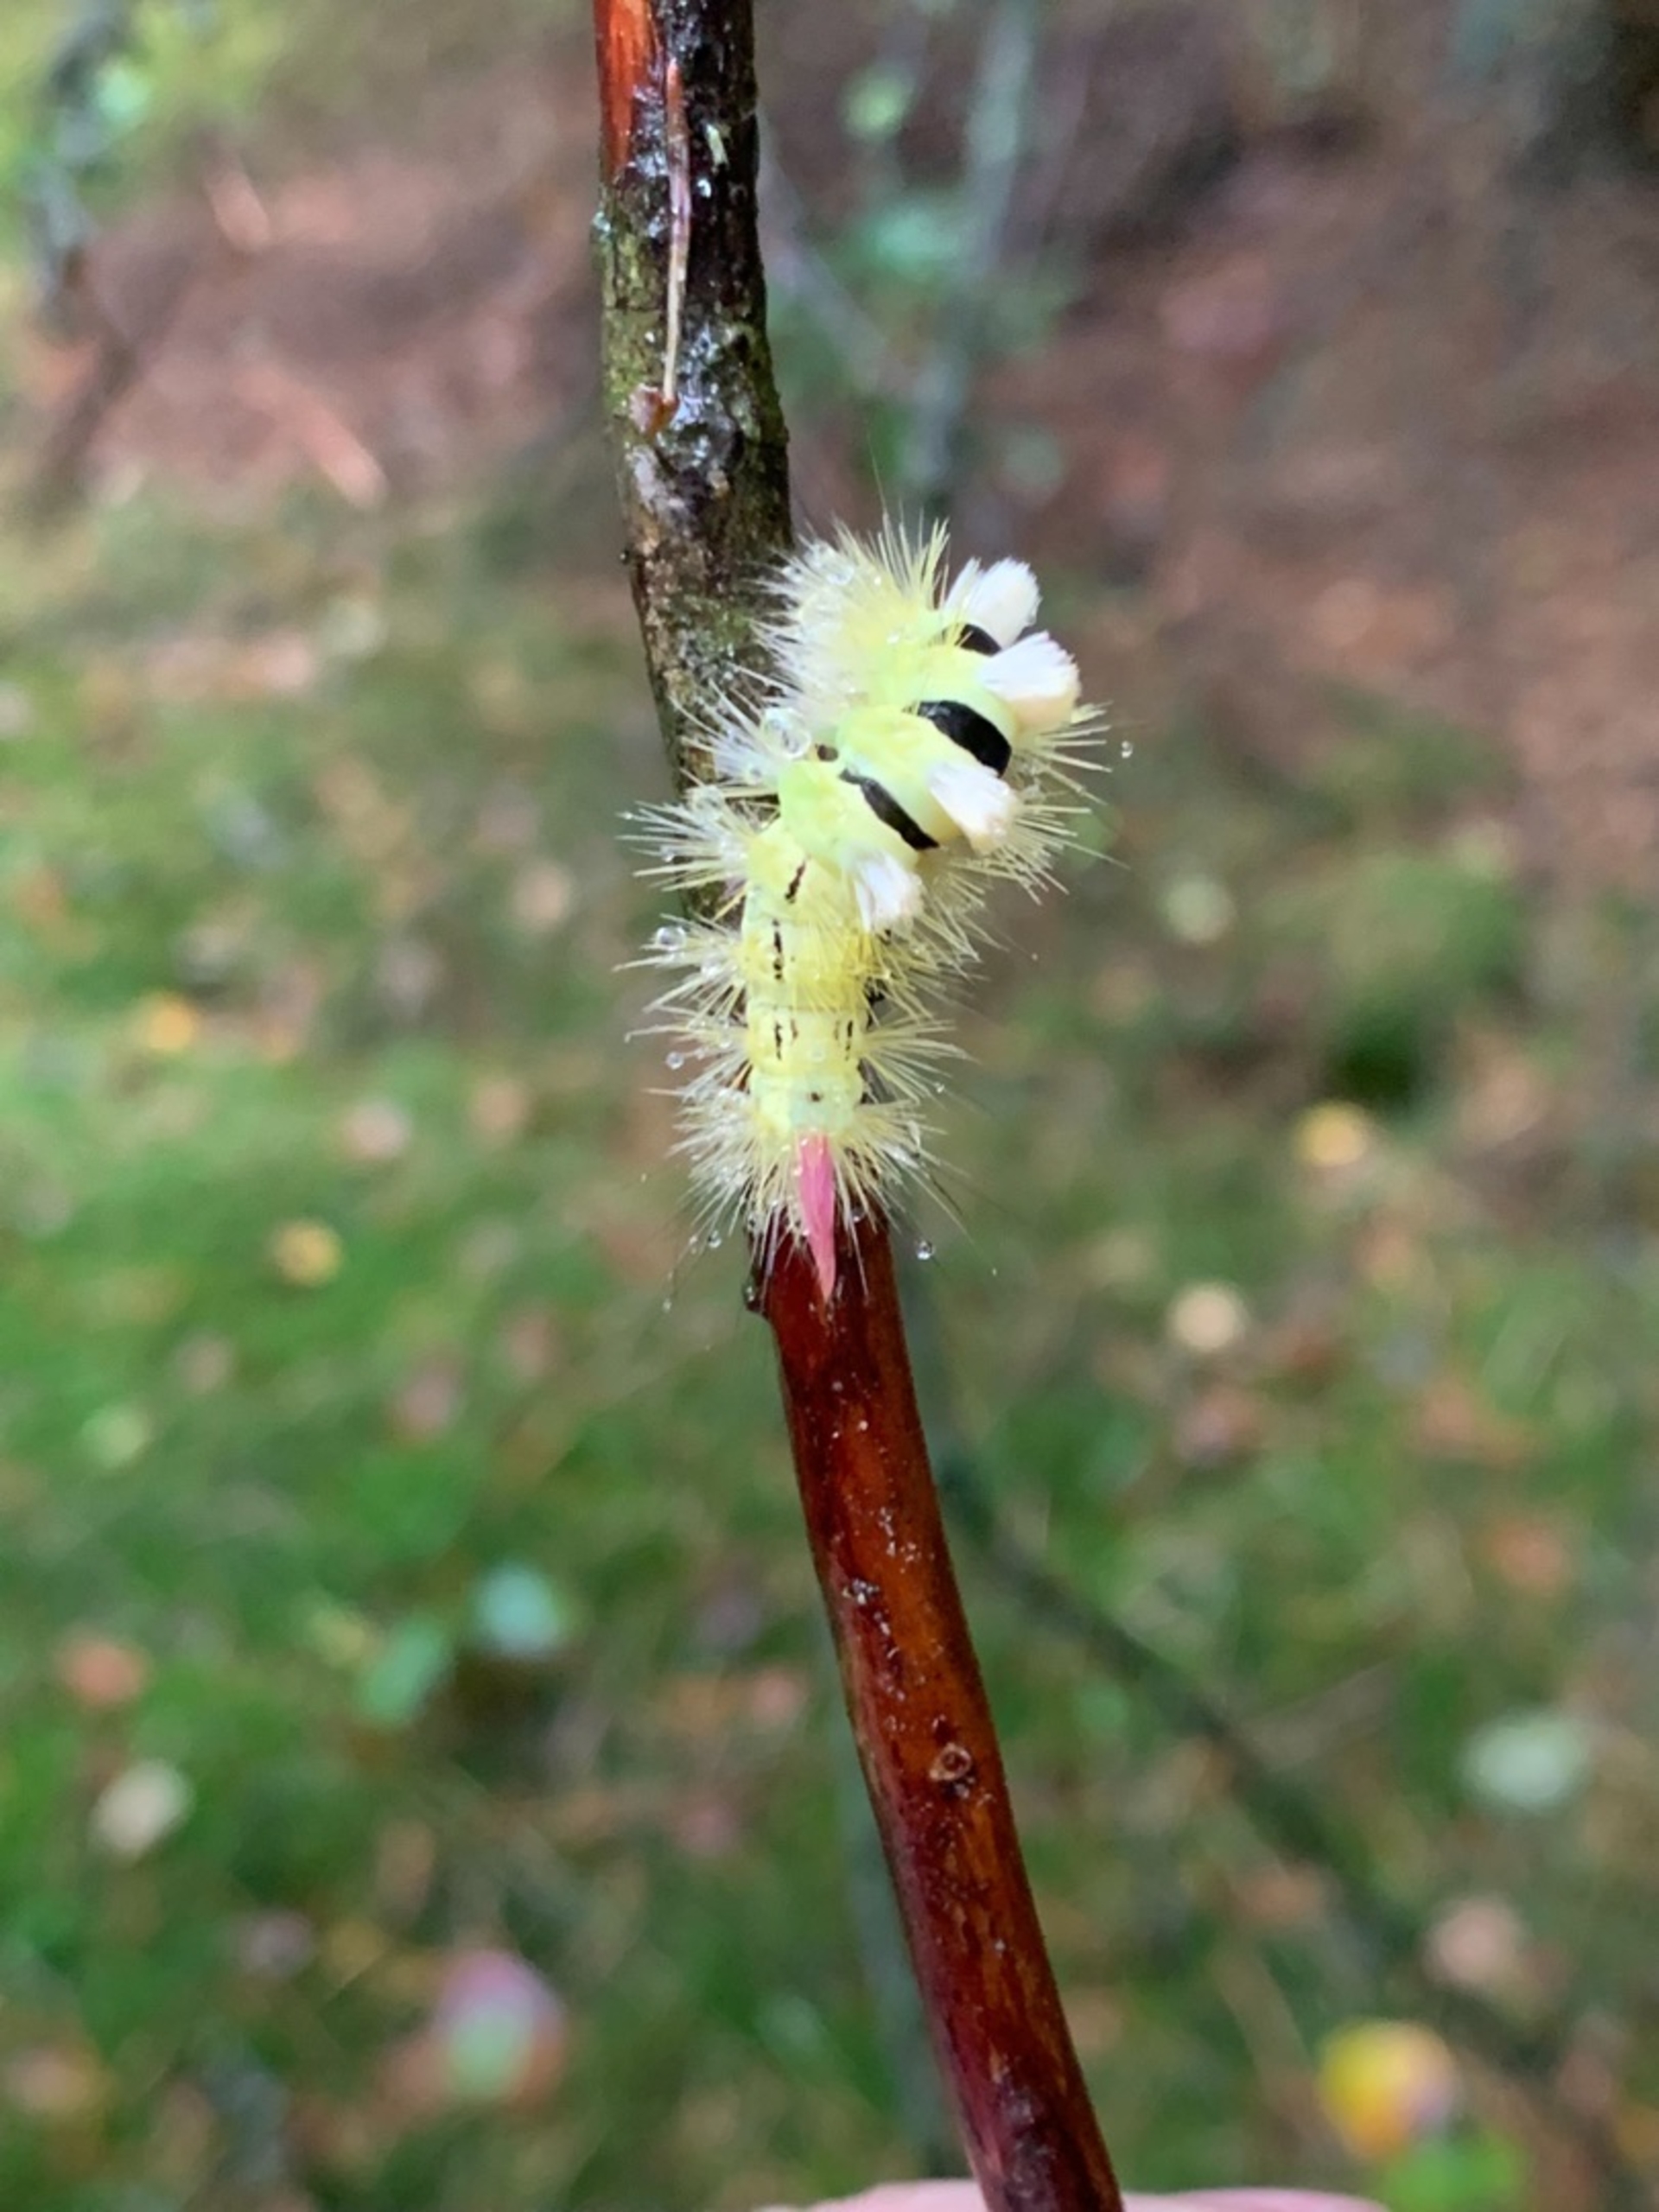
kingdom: Animalia
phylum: Arthropoda
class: Insecta
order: Lepidoptera
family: Erebidae
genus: Calliteara
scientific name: Calliteara pudibunda
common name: Bøgenonne
